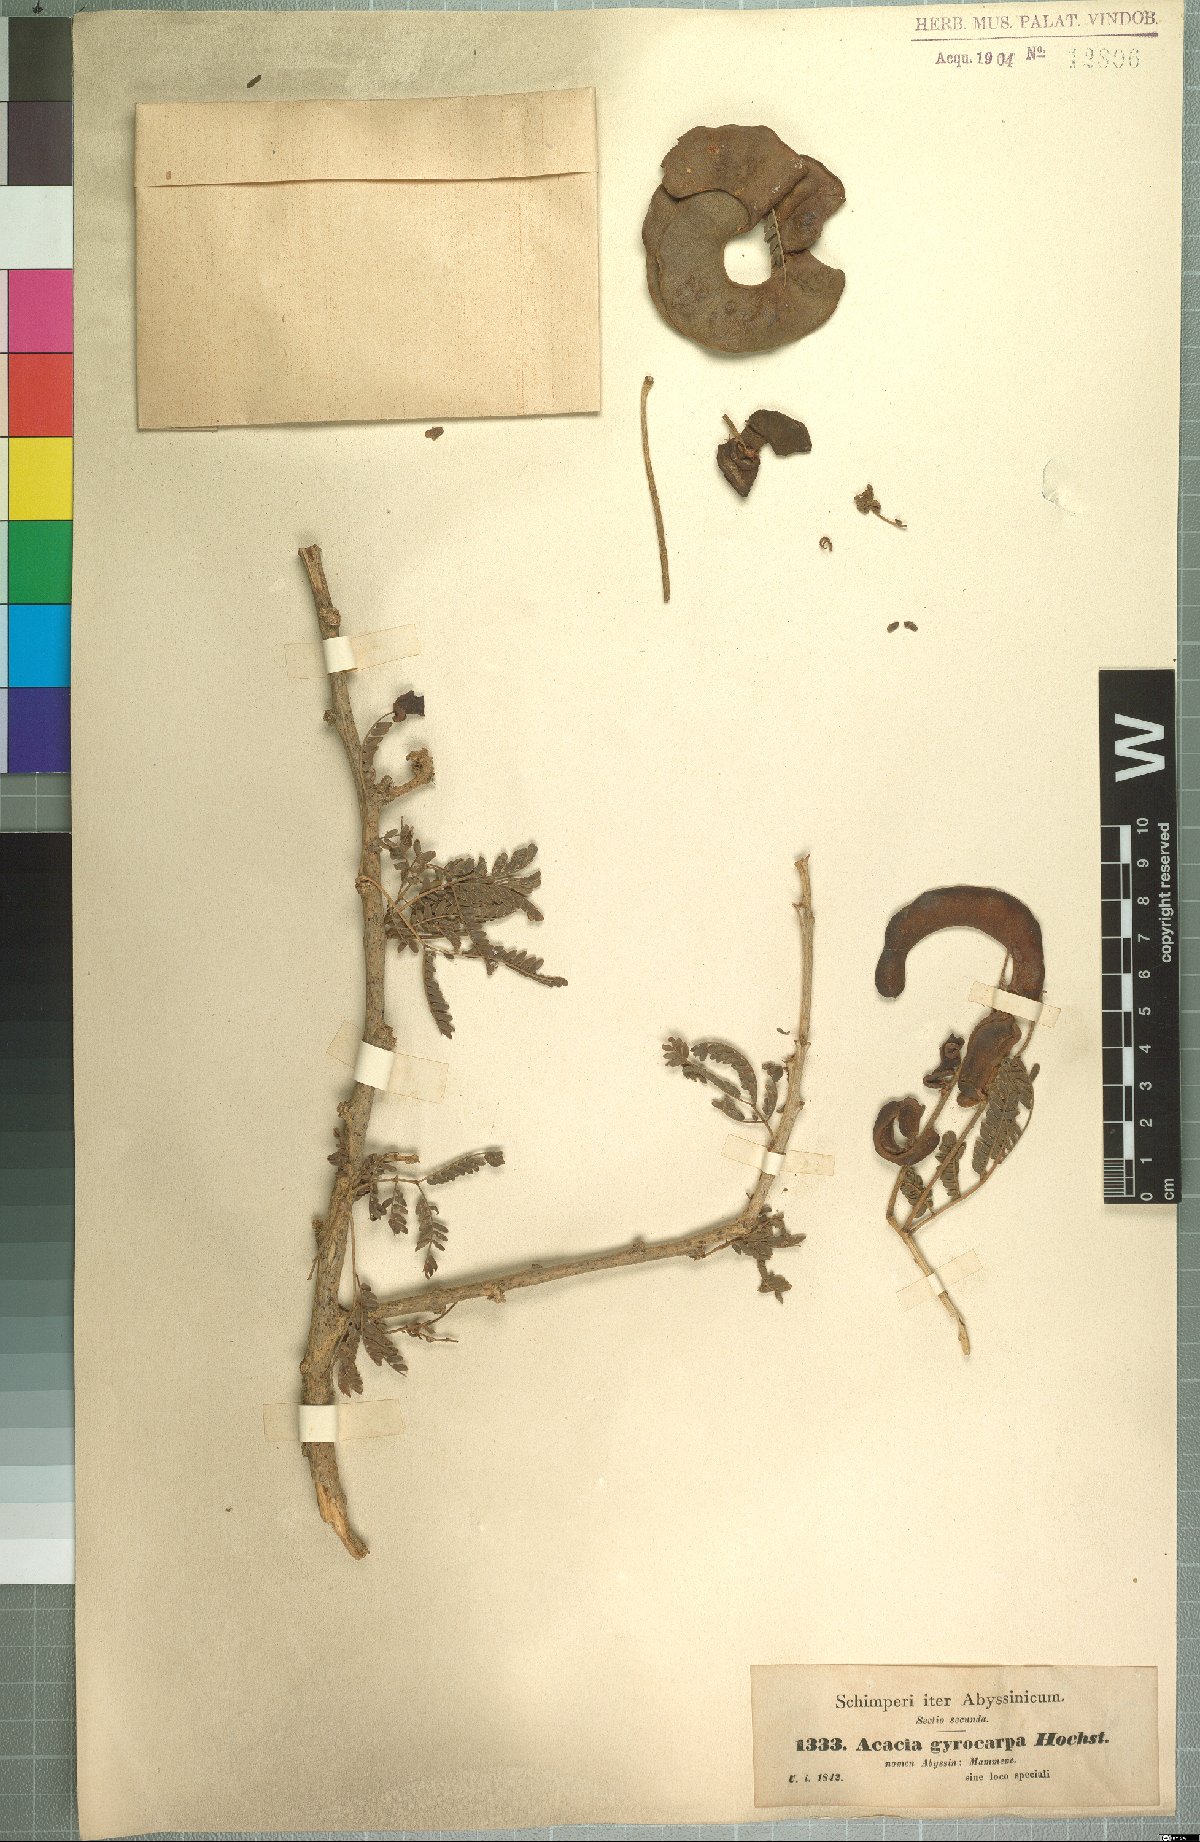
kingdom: Plantae
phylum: Tracheophyta
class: Magnoliopsida
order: Fabales
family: Fabaceae
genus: Faidherbia
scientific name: Faidherbia albida
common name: Anatree
